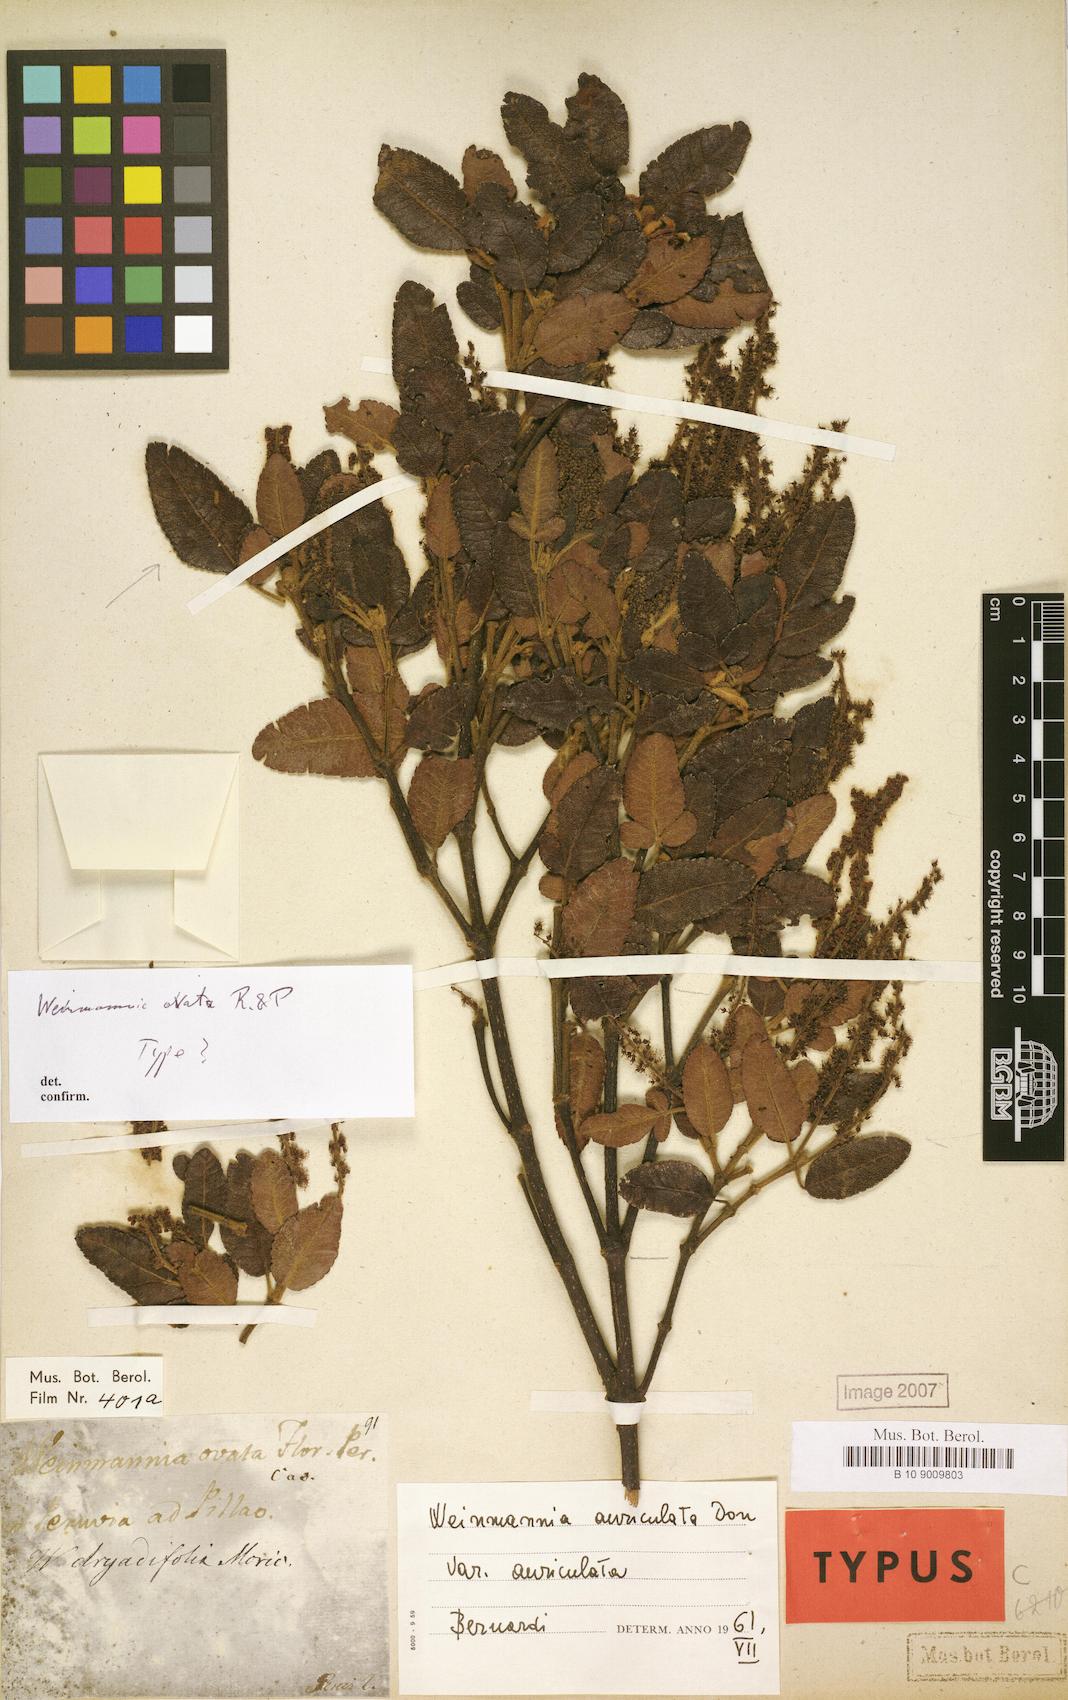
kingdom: Plantae
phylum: Tracheophyta
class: Magnoliopsida
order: Oxalidales
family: Cunoniaceae
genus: Weinmannia
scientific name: Weinmannia auriculata
